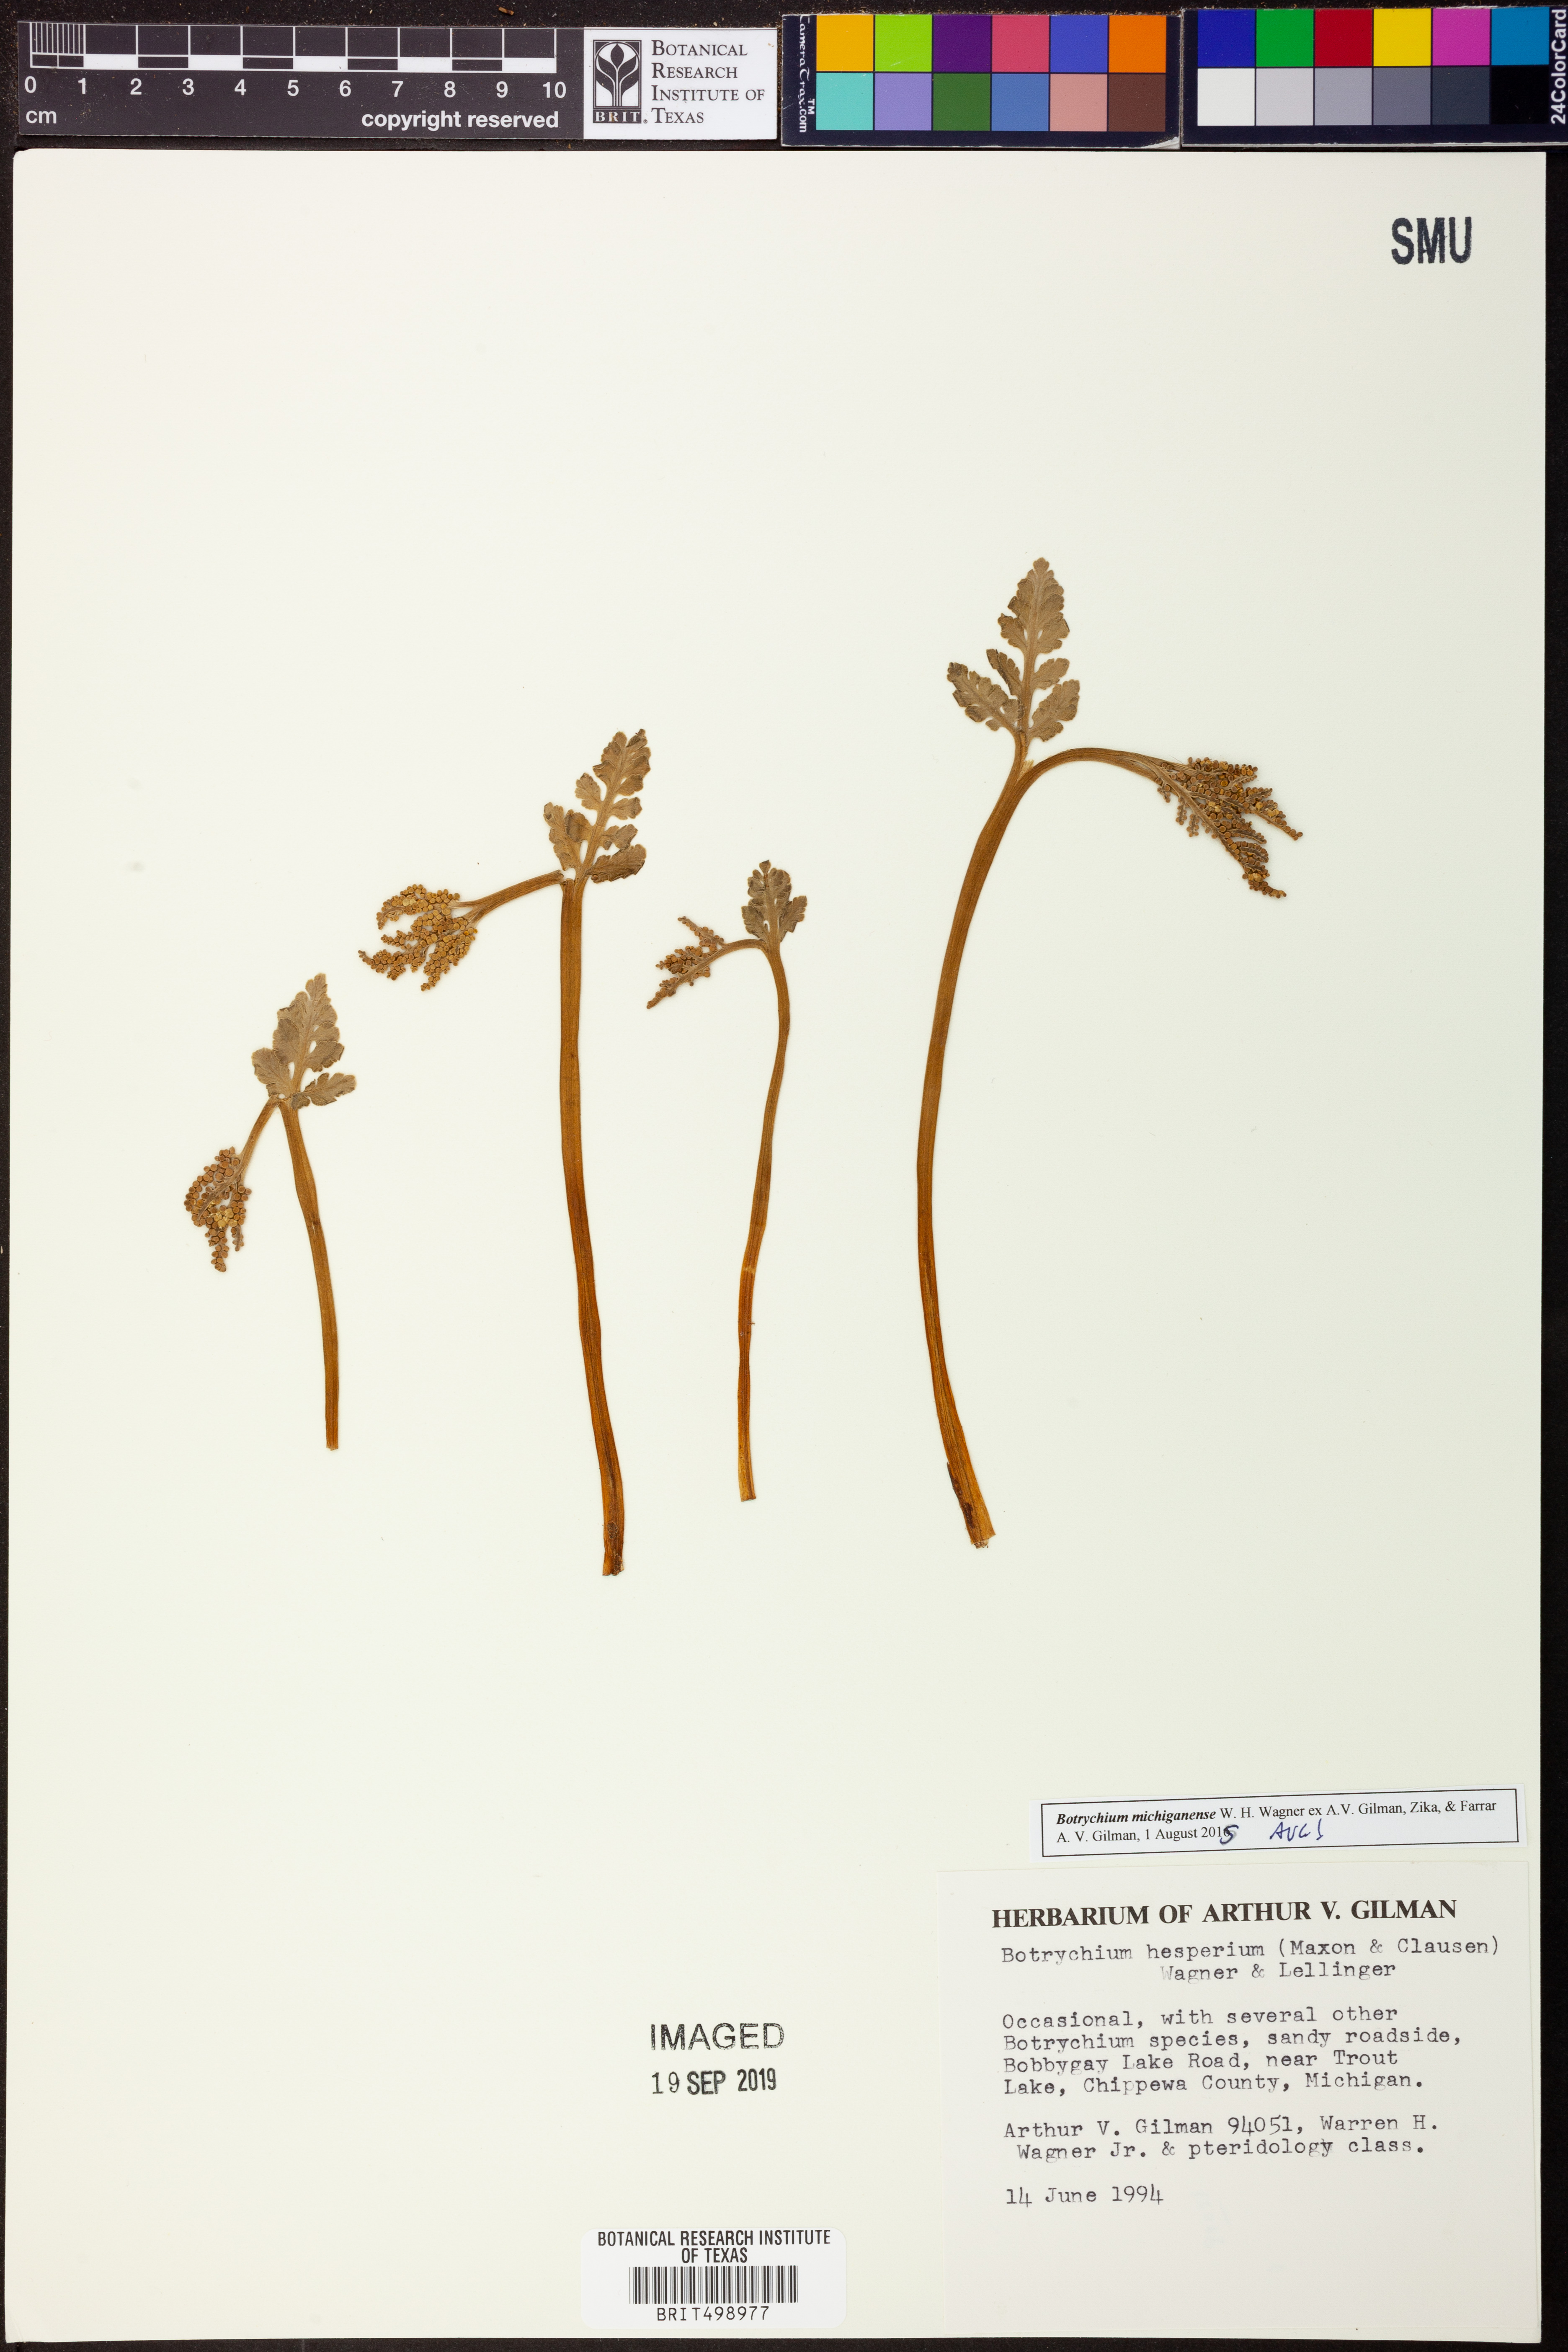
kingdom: Plantae
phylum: Tracheophyta
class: Polypodiopsida
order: Ophioglossales
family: Ophioglossaceae
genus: Botrychium
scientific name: Botrychium michiganense
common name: Michigan moonwort
